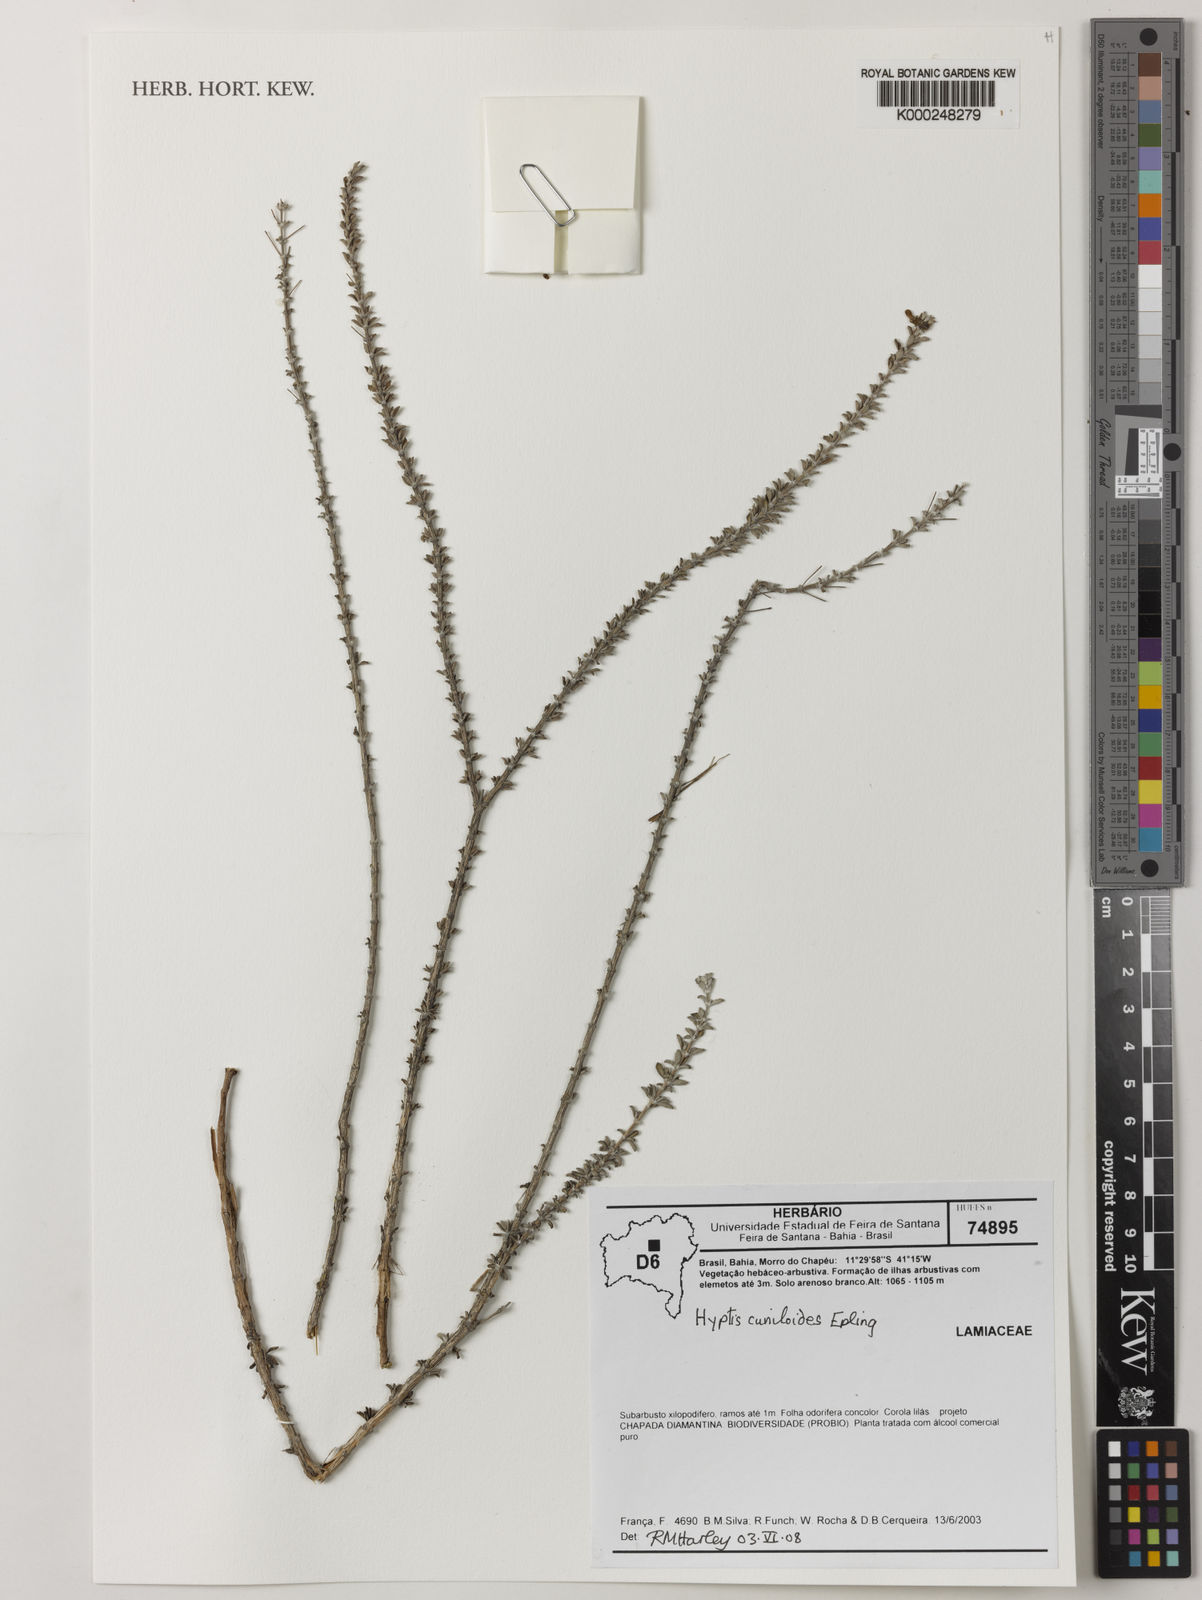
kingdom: Plantae
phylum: Tracheophyta
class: Magnoliopsida
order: Lamiales
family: Lamiaceae
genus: Eplingiella
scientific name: Eplingiella cuniloides
